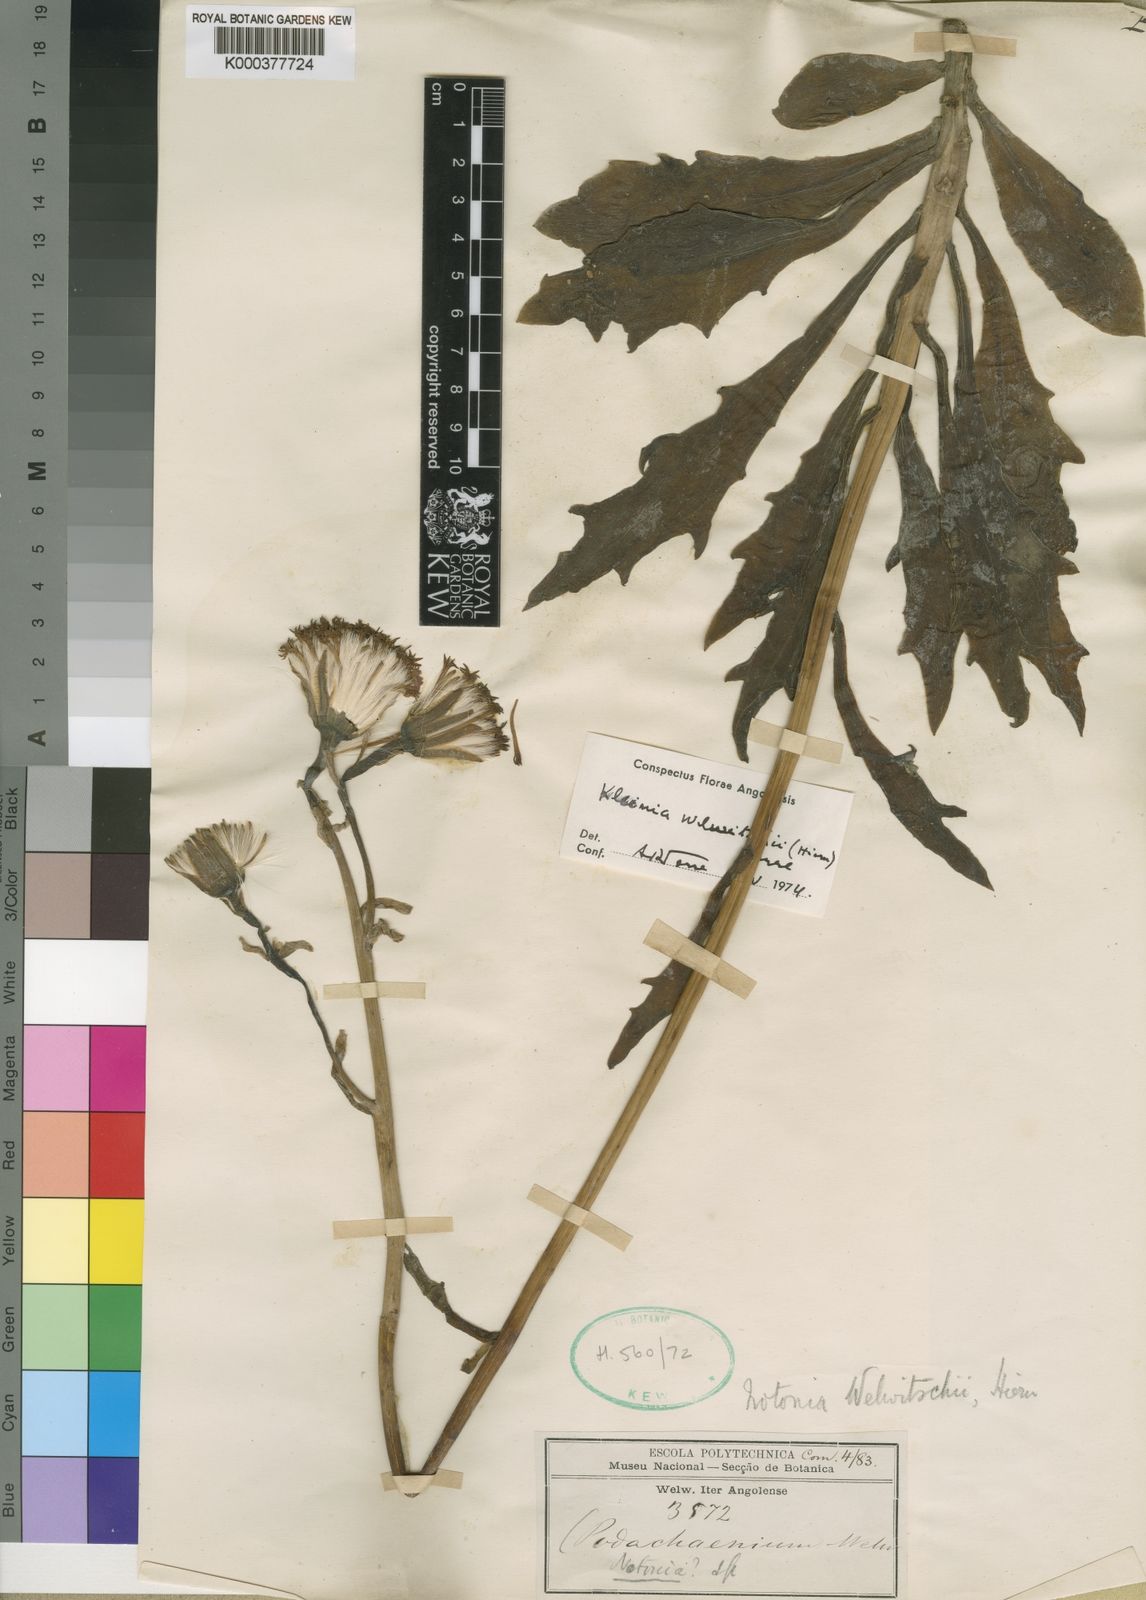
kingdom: Plantae
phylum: Tracheophyta
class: Magnoliopsida
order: Asterales
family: Asteraceae
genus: Kleinia
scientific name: Kleinia fulgens
